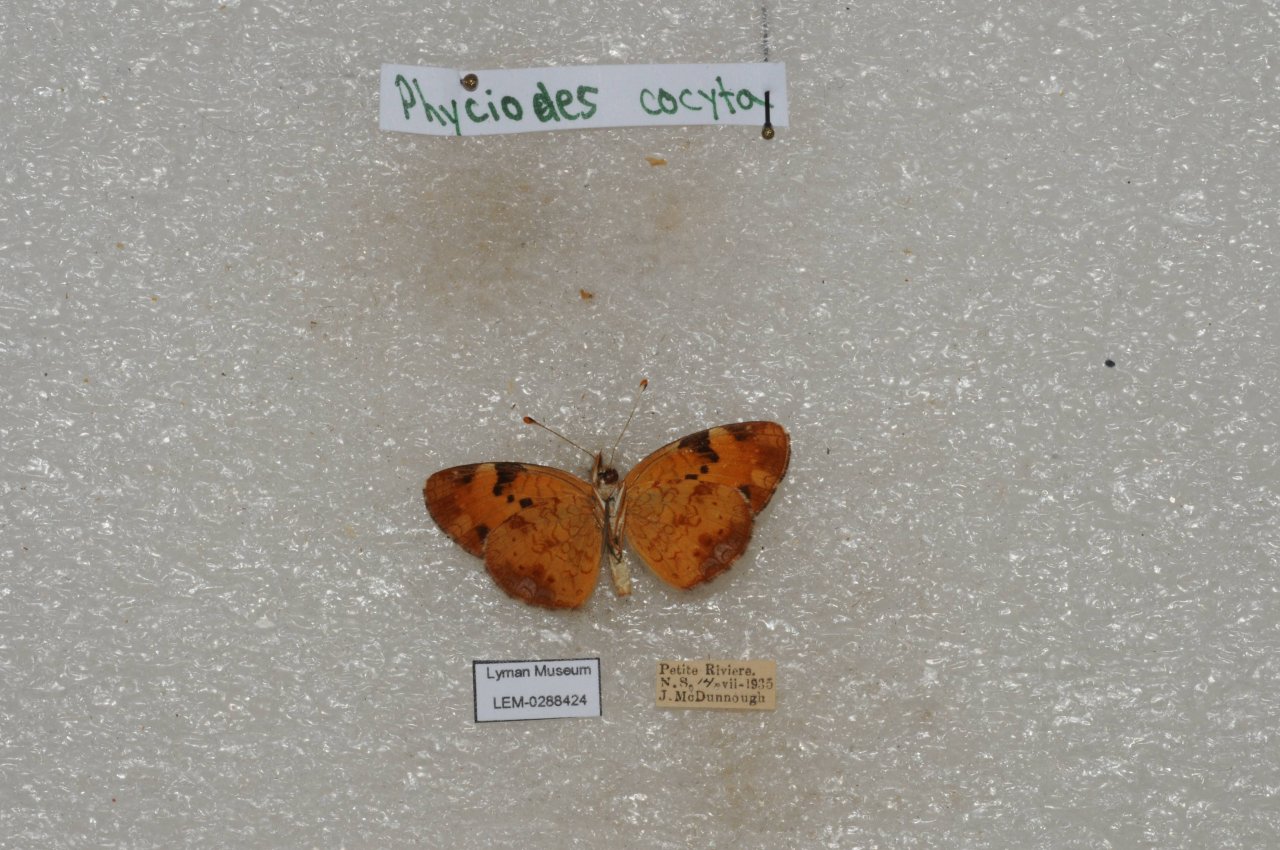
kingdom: Animalia
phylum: Arthropoda
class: Insecta
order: Lepidoptera
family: Nymphalidae
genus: Phyciodes
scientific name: Phyciodes tharos
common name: Northern Crescent
